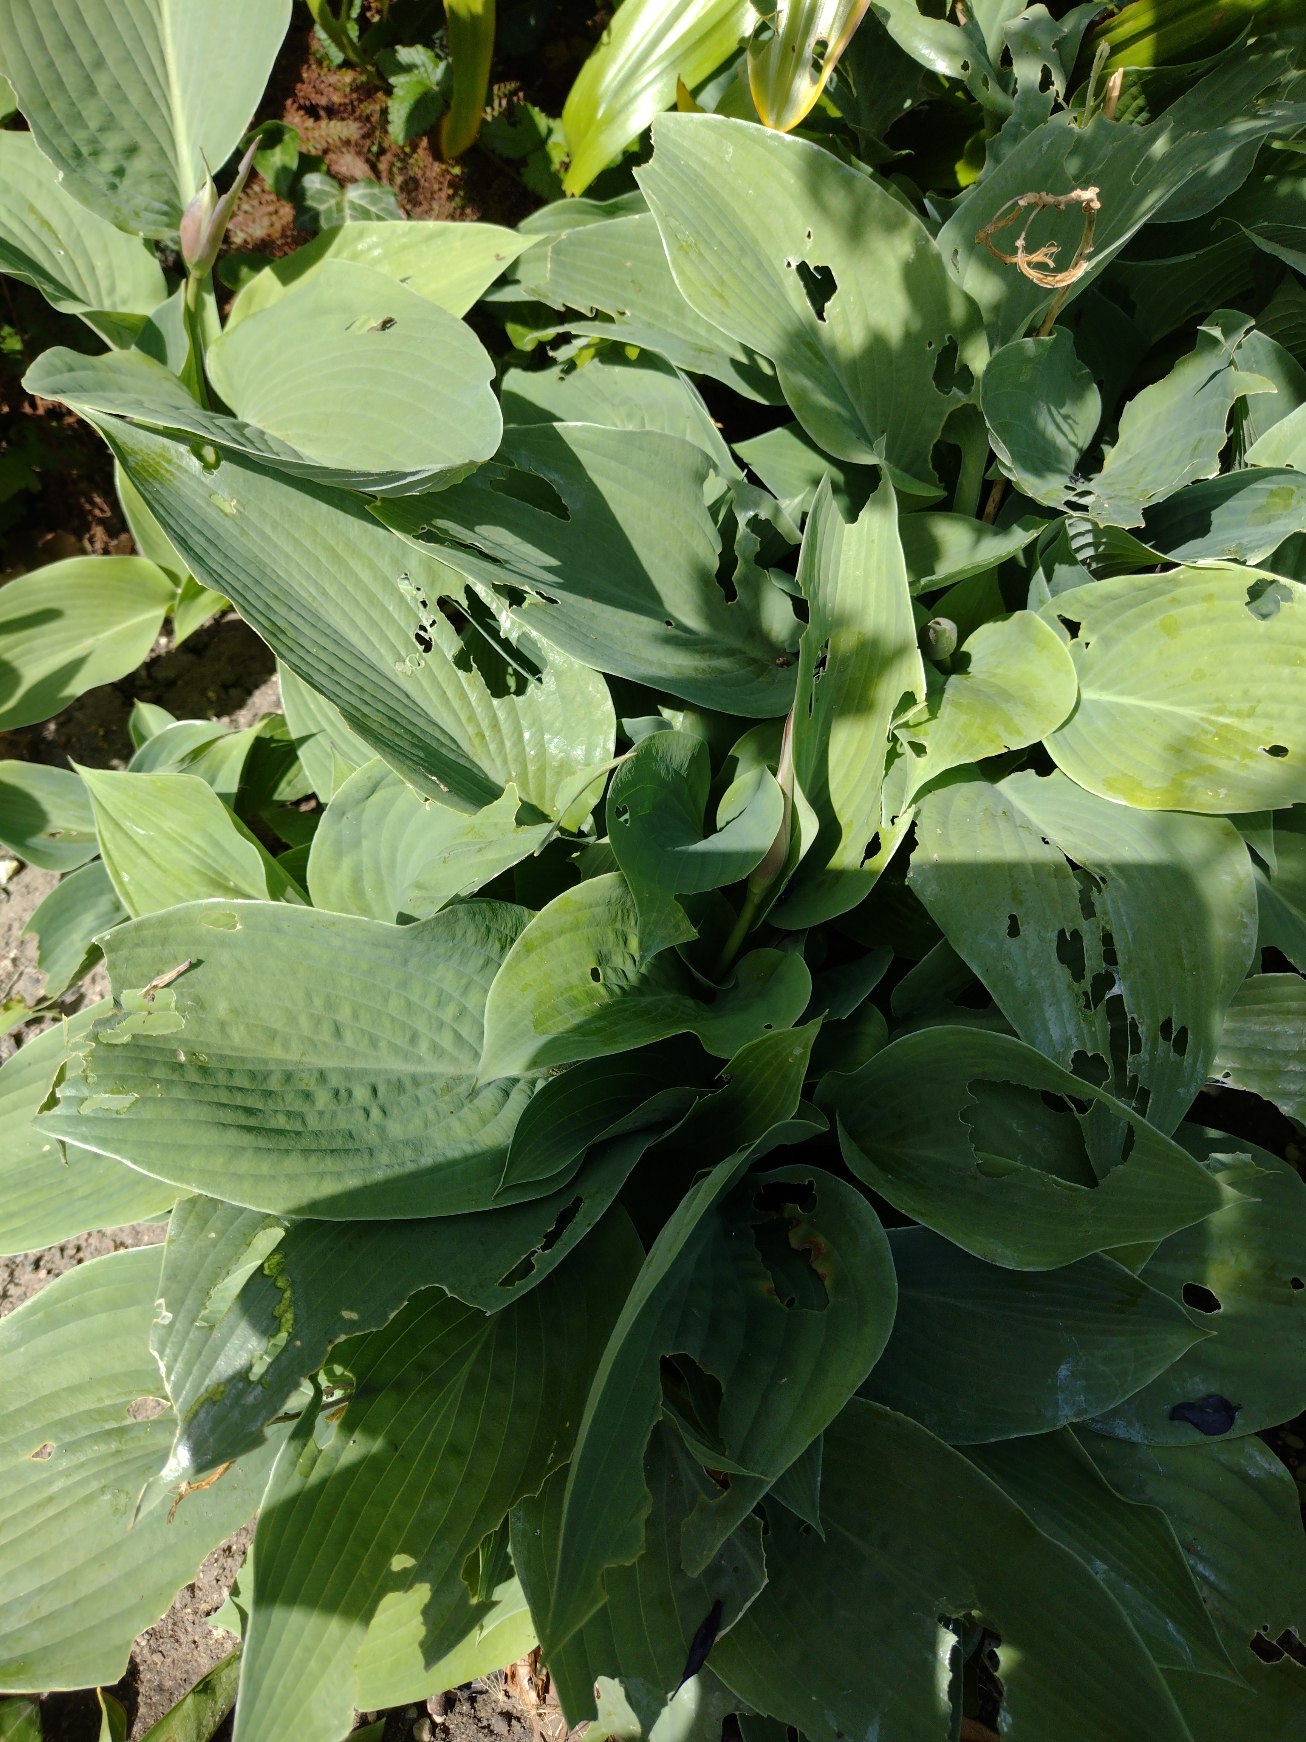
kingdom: Plantae
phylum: Tracheophyta
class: Liliopsida
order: Asparagales
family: Asparagaceae
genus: Hosta
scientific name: Hosta sieboldiana
